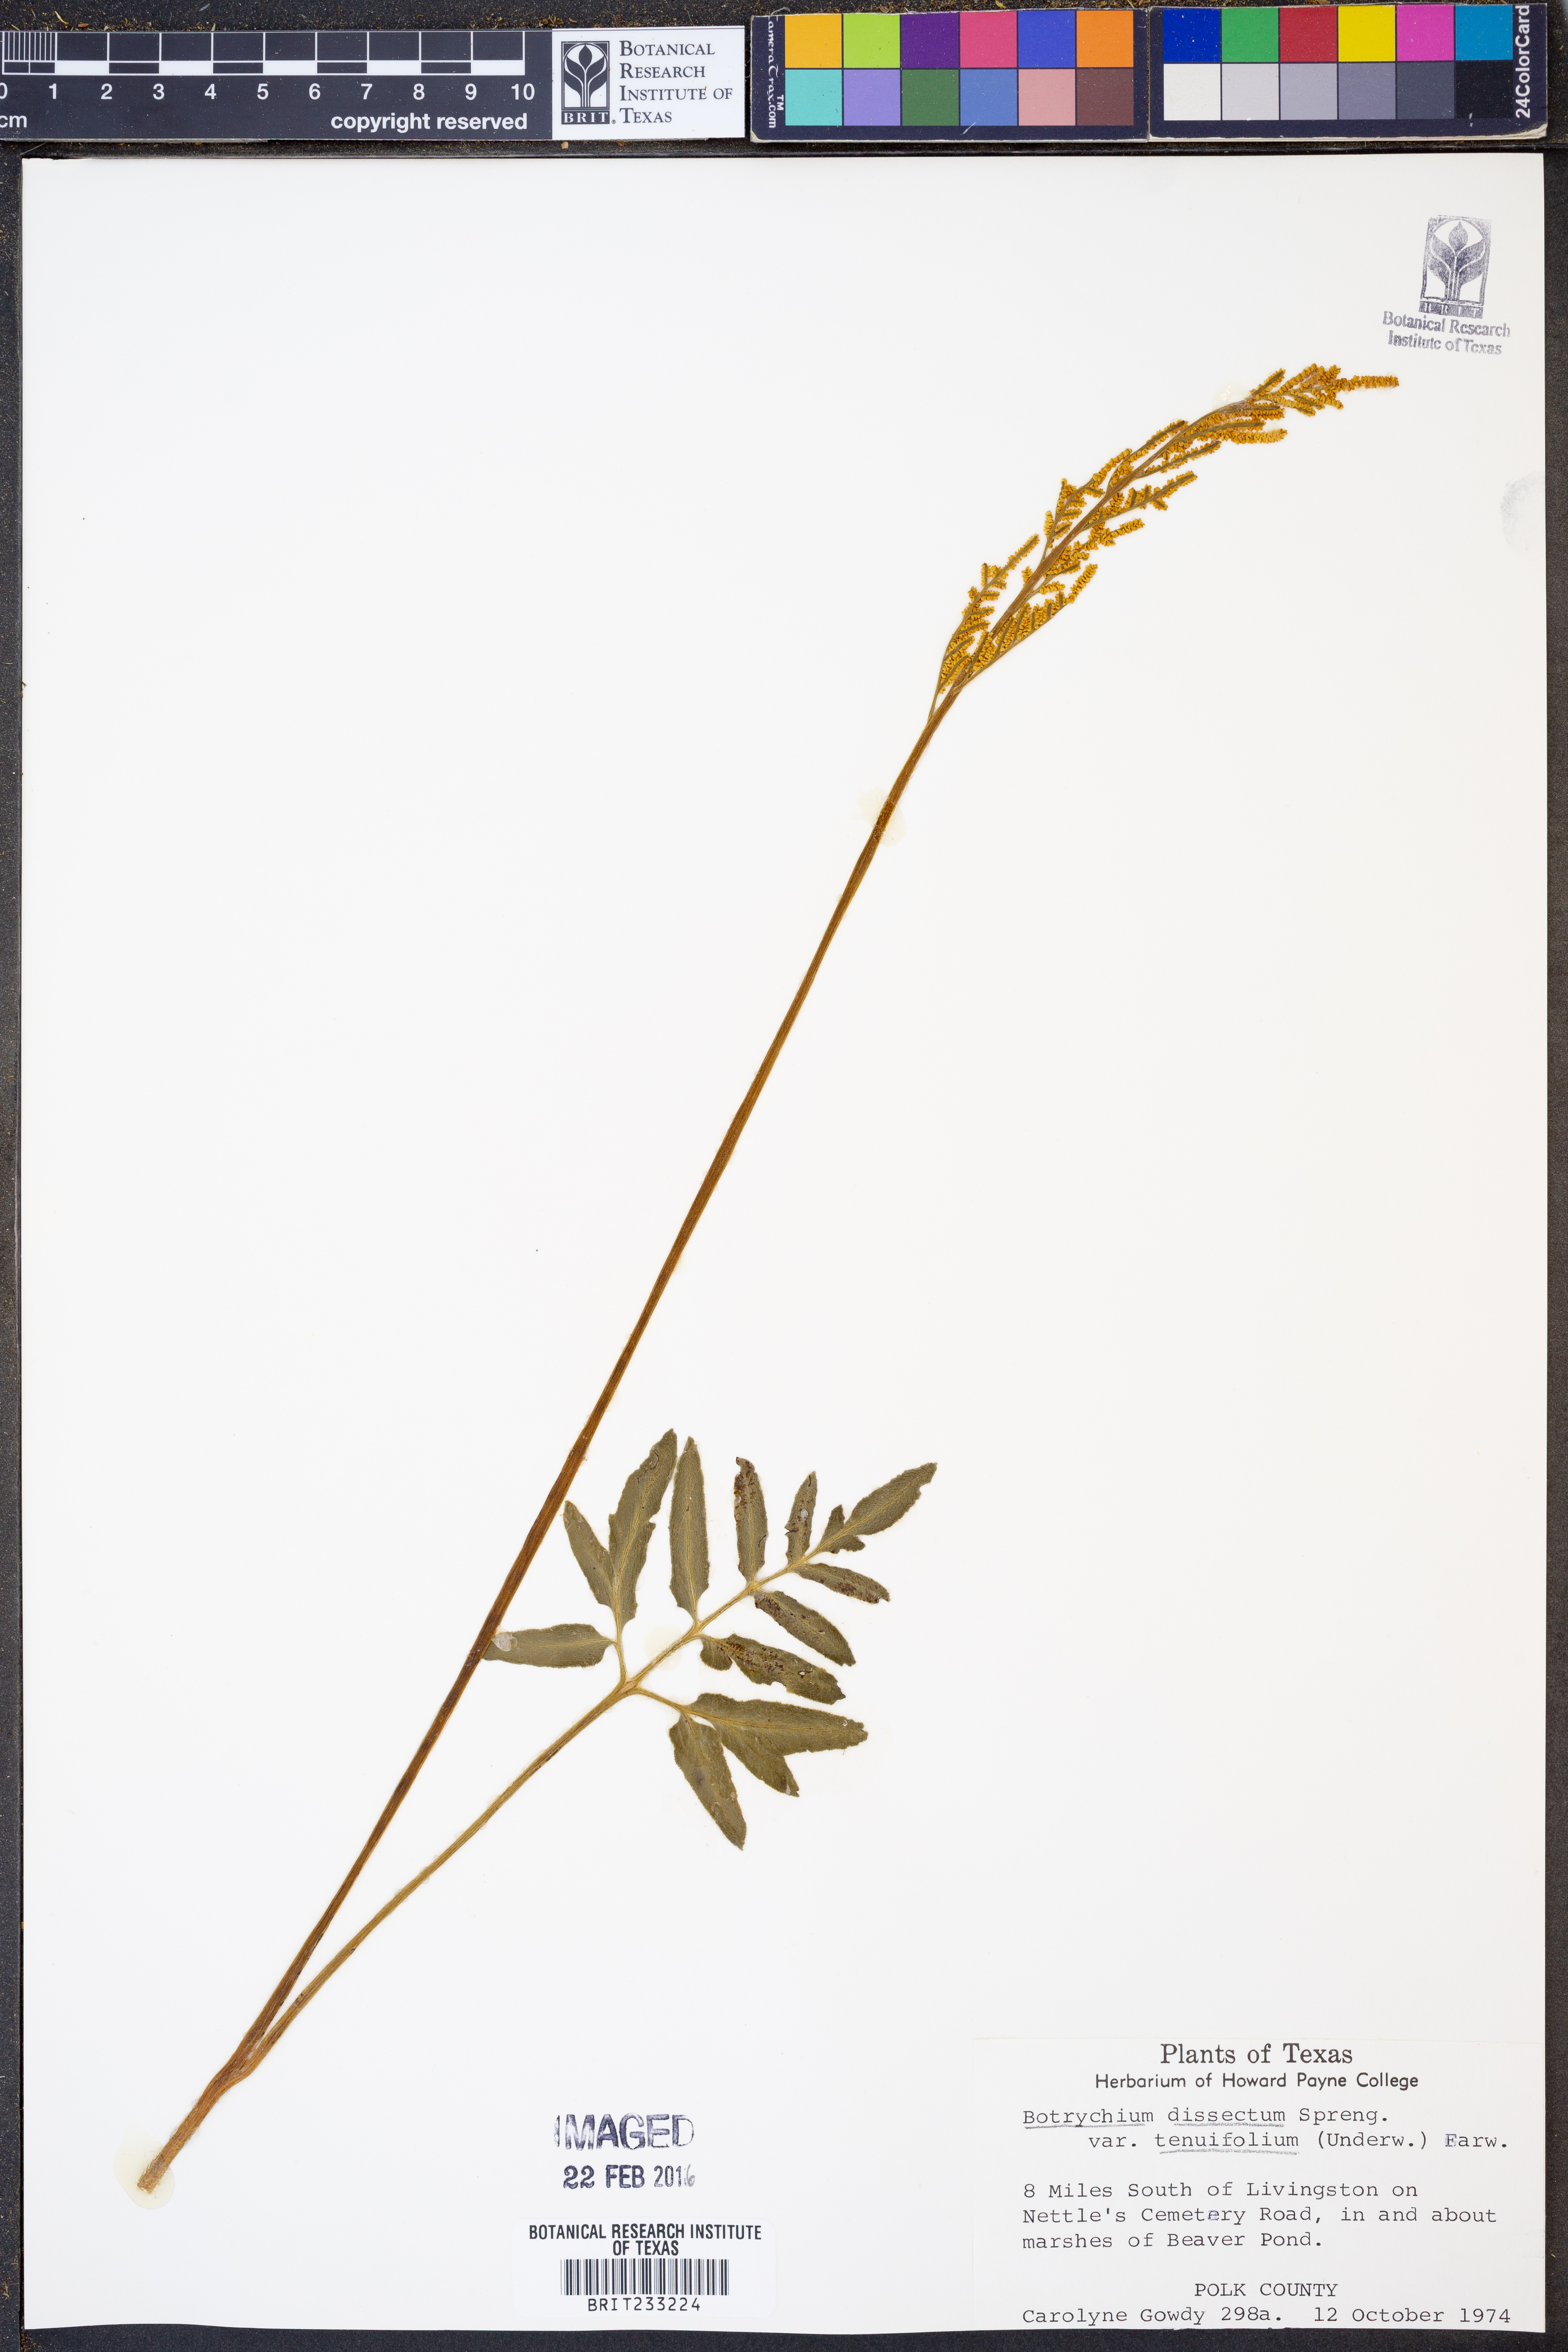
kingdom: Plantae
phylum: Tracheophyta
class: Polypodiopsida
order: Ophioglossales
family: Ophioglossaceae
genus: Sceptridium
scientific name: Sceptridium biternatum
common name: Sparse-lobed grapefern
